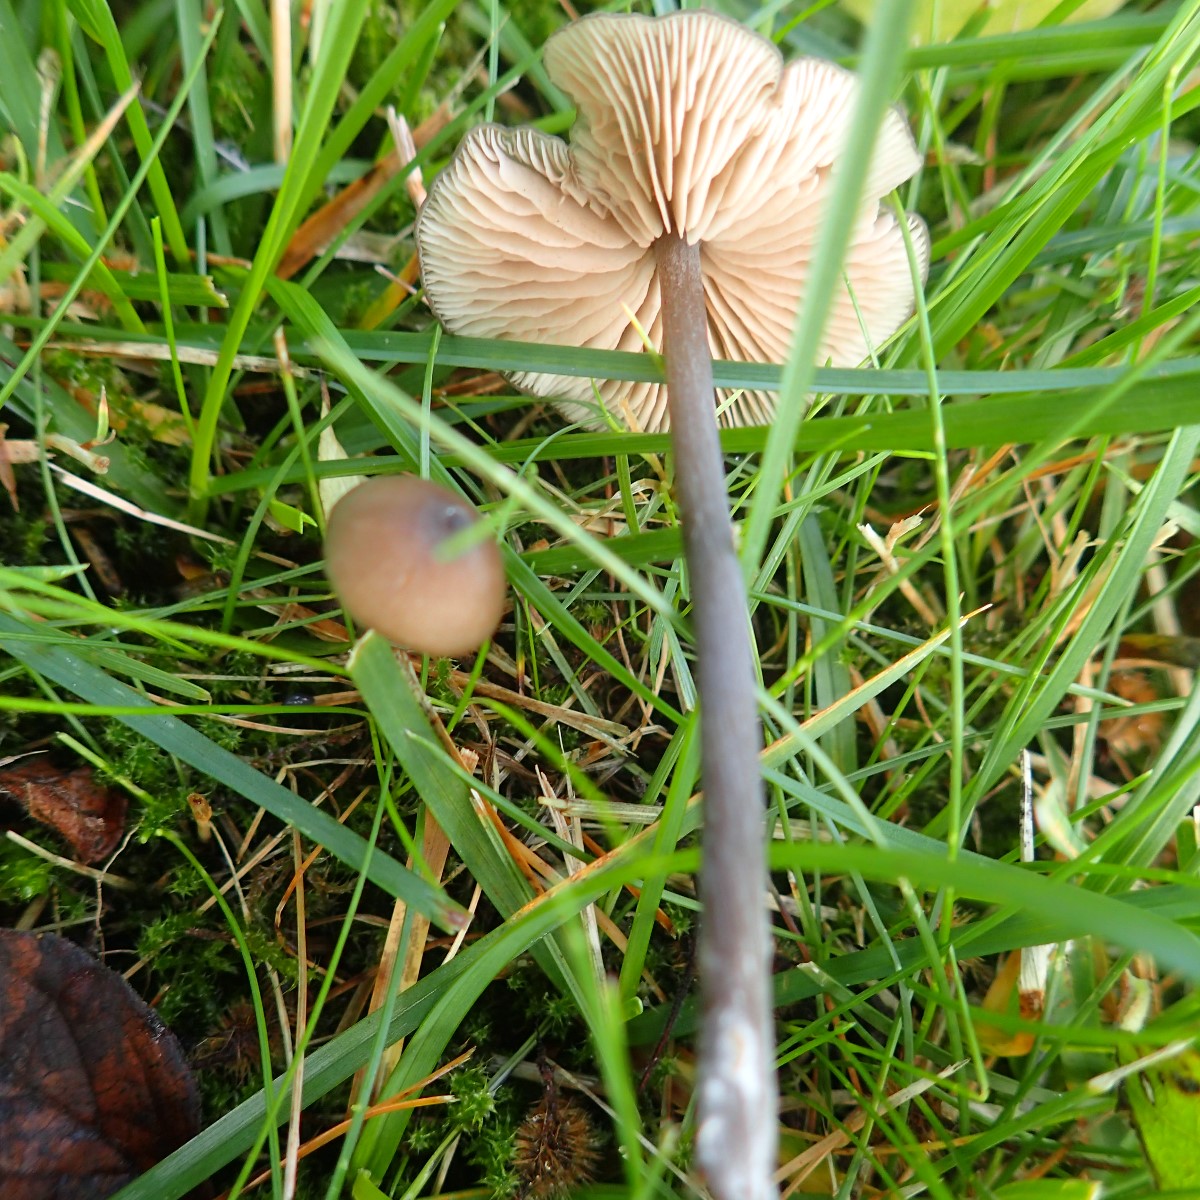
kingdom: Fungi
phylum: Basidiomycota
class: Agaricomycetes
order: Agaricales
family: Entolomataceae
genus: Entoloma
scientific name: Entoloma hebes
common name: krat-rødblad
